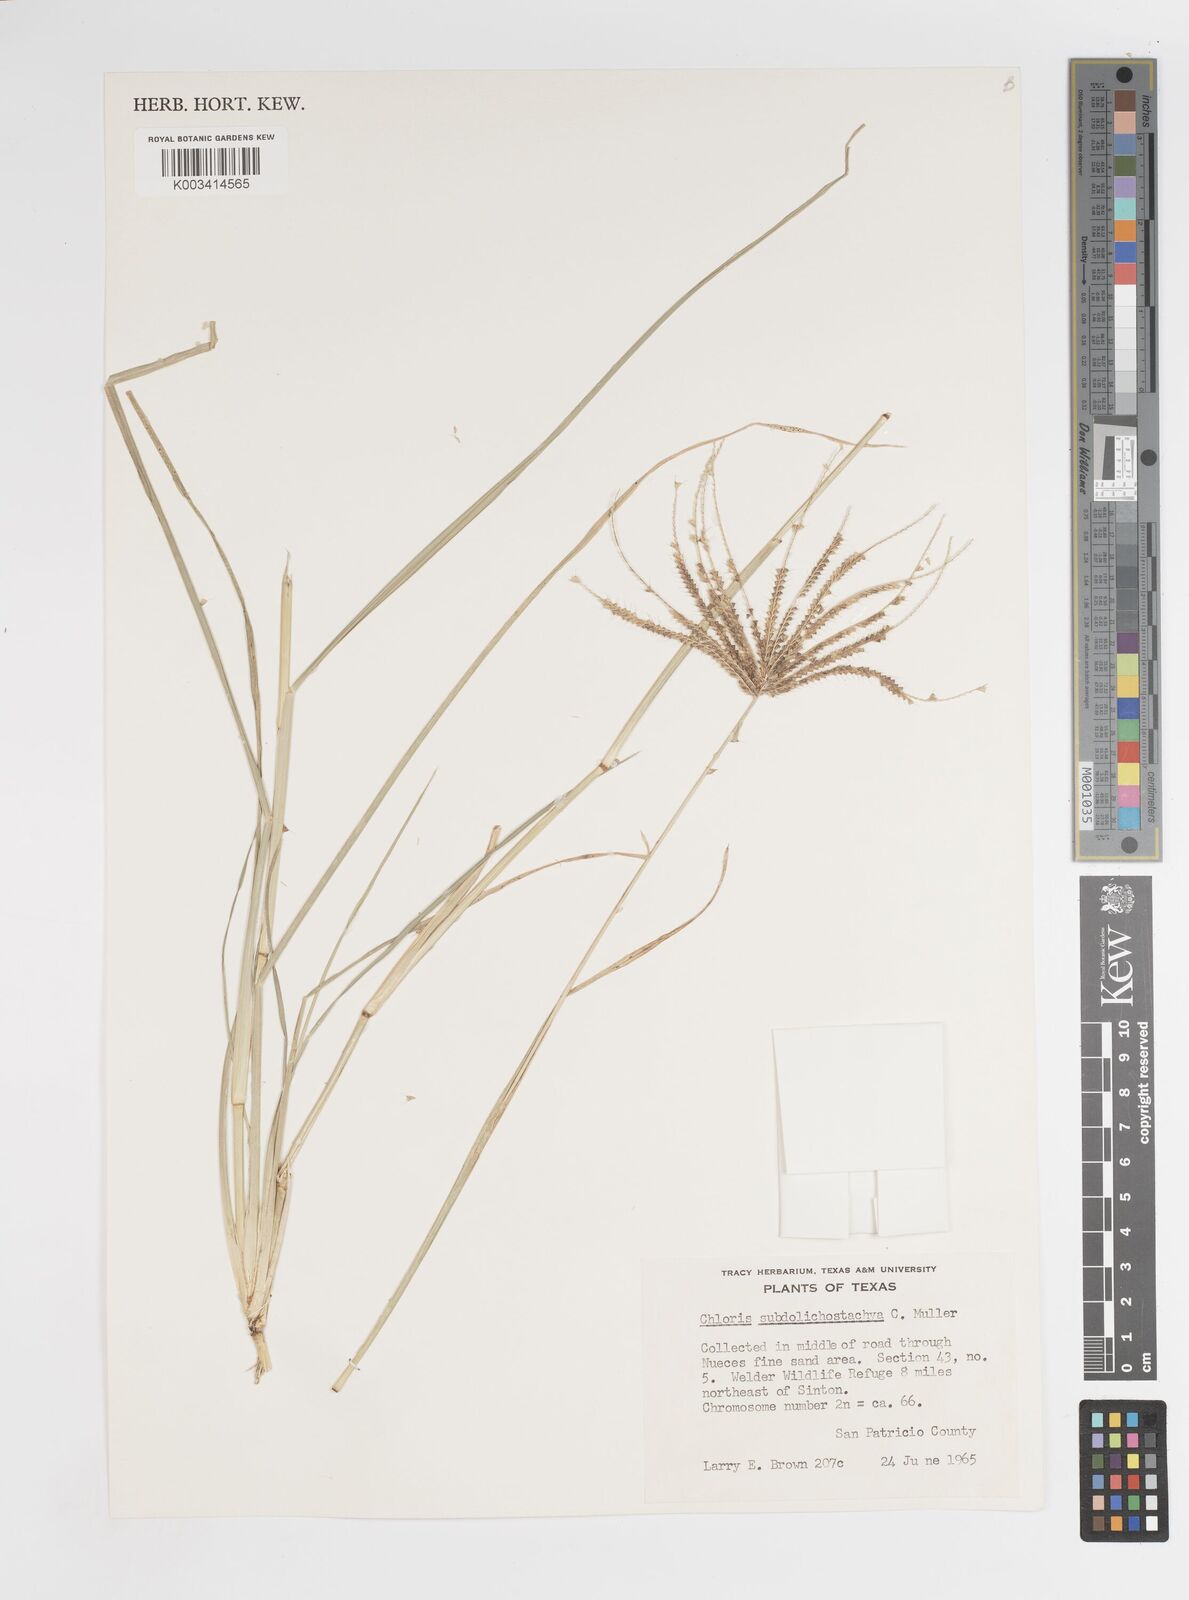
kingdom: Plantae
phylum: Tracheophyta
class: Liliopsida
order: Poales
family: Poaceae
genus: Chloris
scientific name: Chloris subdolichostachya
